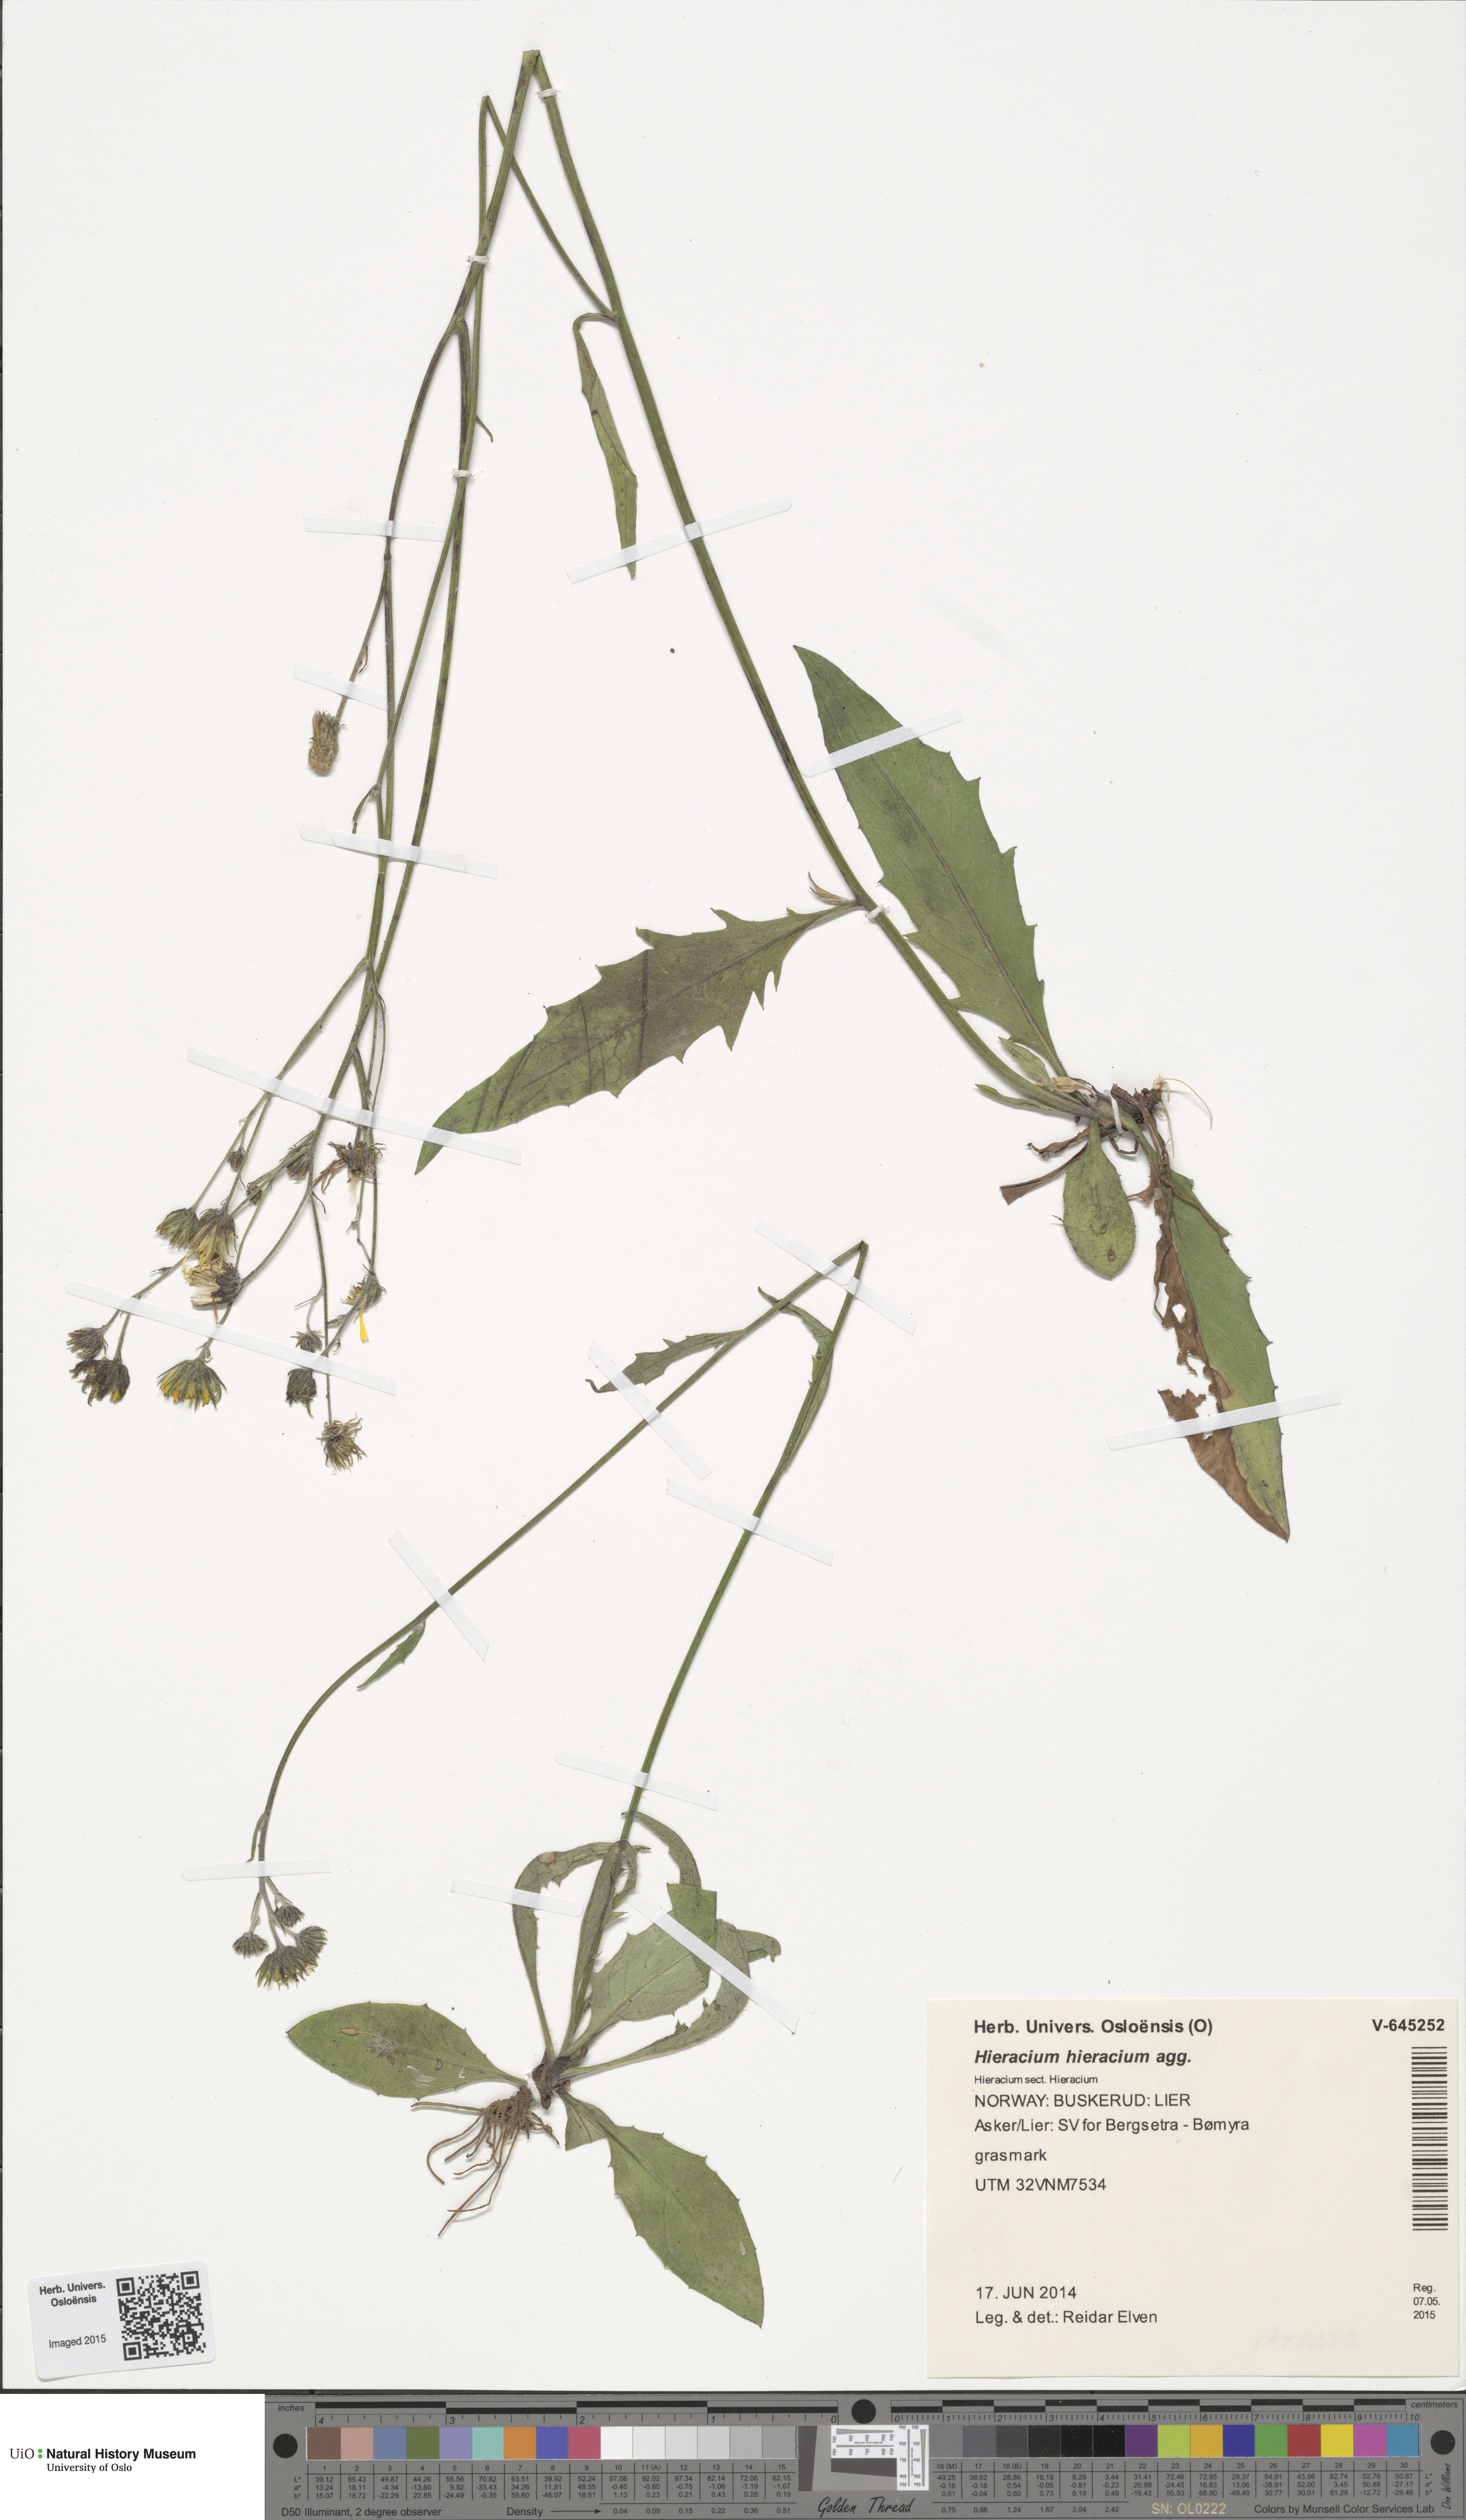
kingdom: Plantae
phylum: Tracheophyta
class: Magnoliopsida
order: Asterales
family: Asteraceae
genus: Hieracium
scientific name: Hieracium
